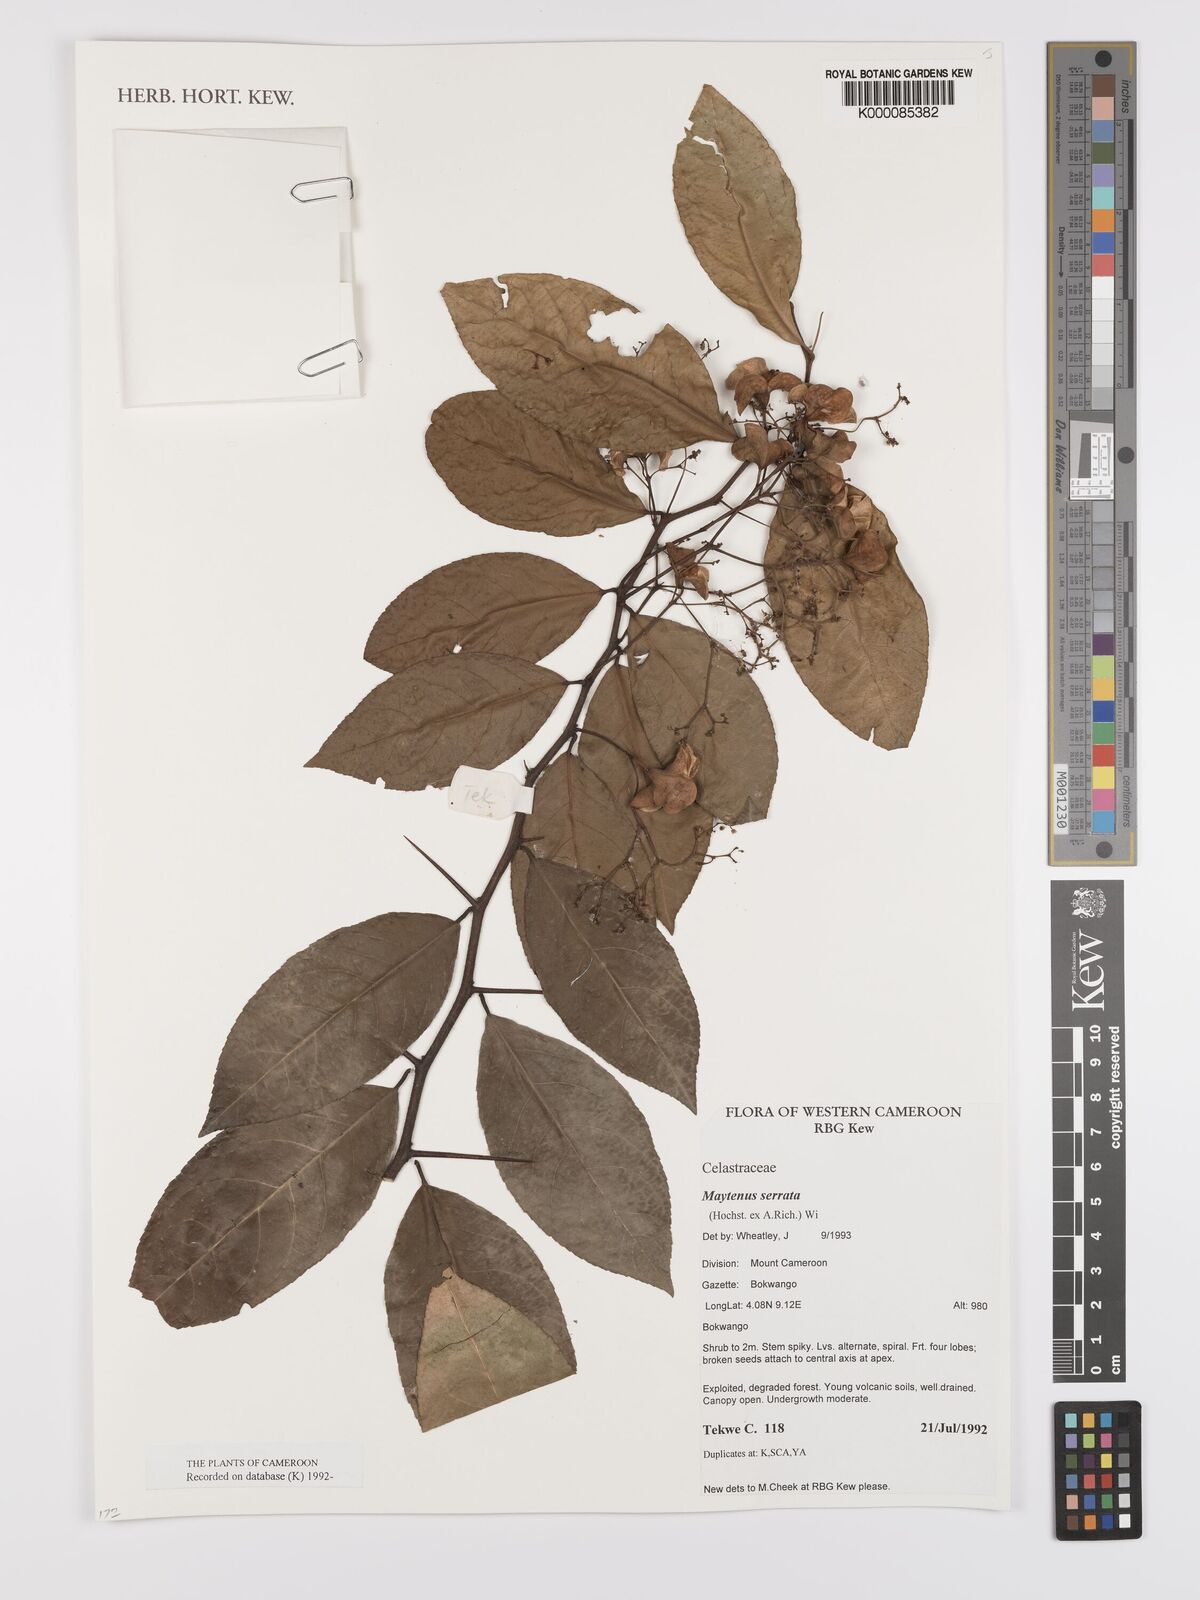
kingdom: Plantae
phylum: Tracheophyta
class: Magnoliopsida
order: Celastrales
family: Celastraceae
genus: Gymnosporia
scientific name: Gymnosporia gracilipes
